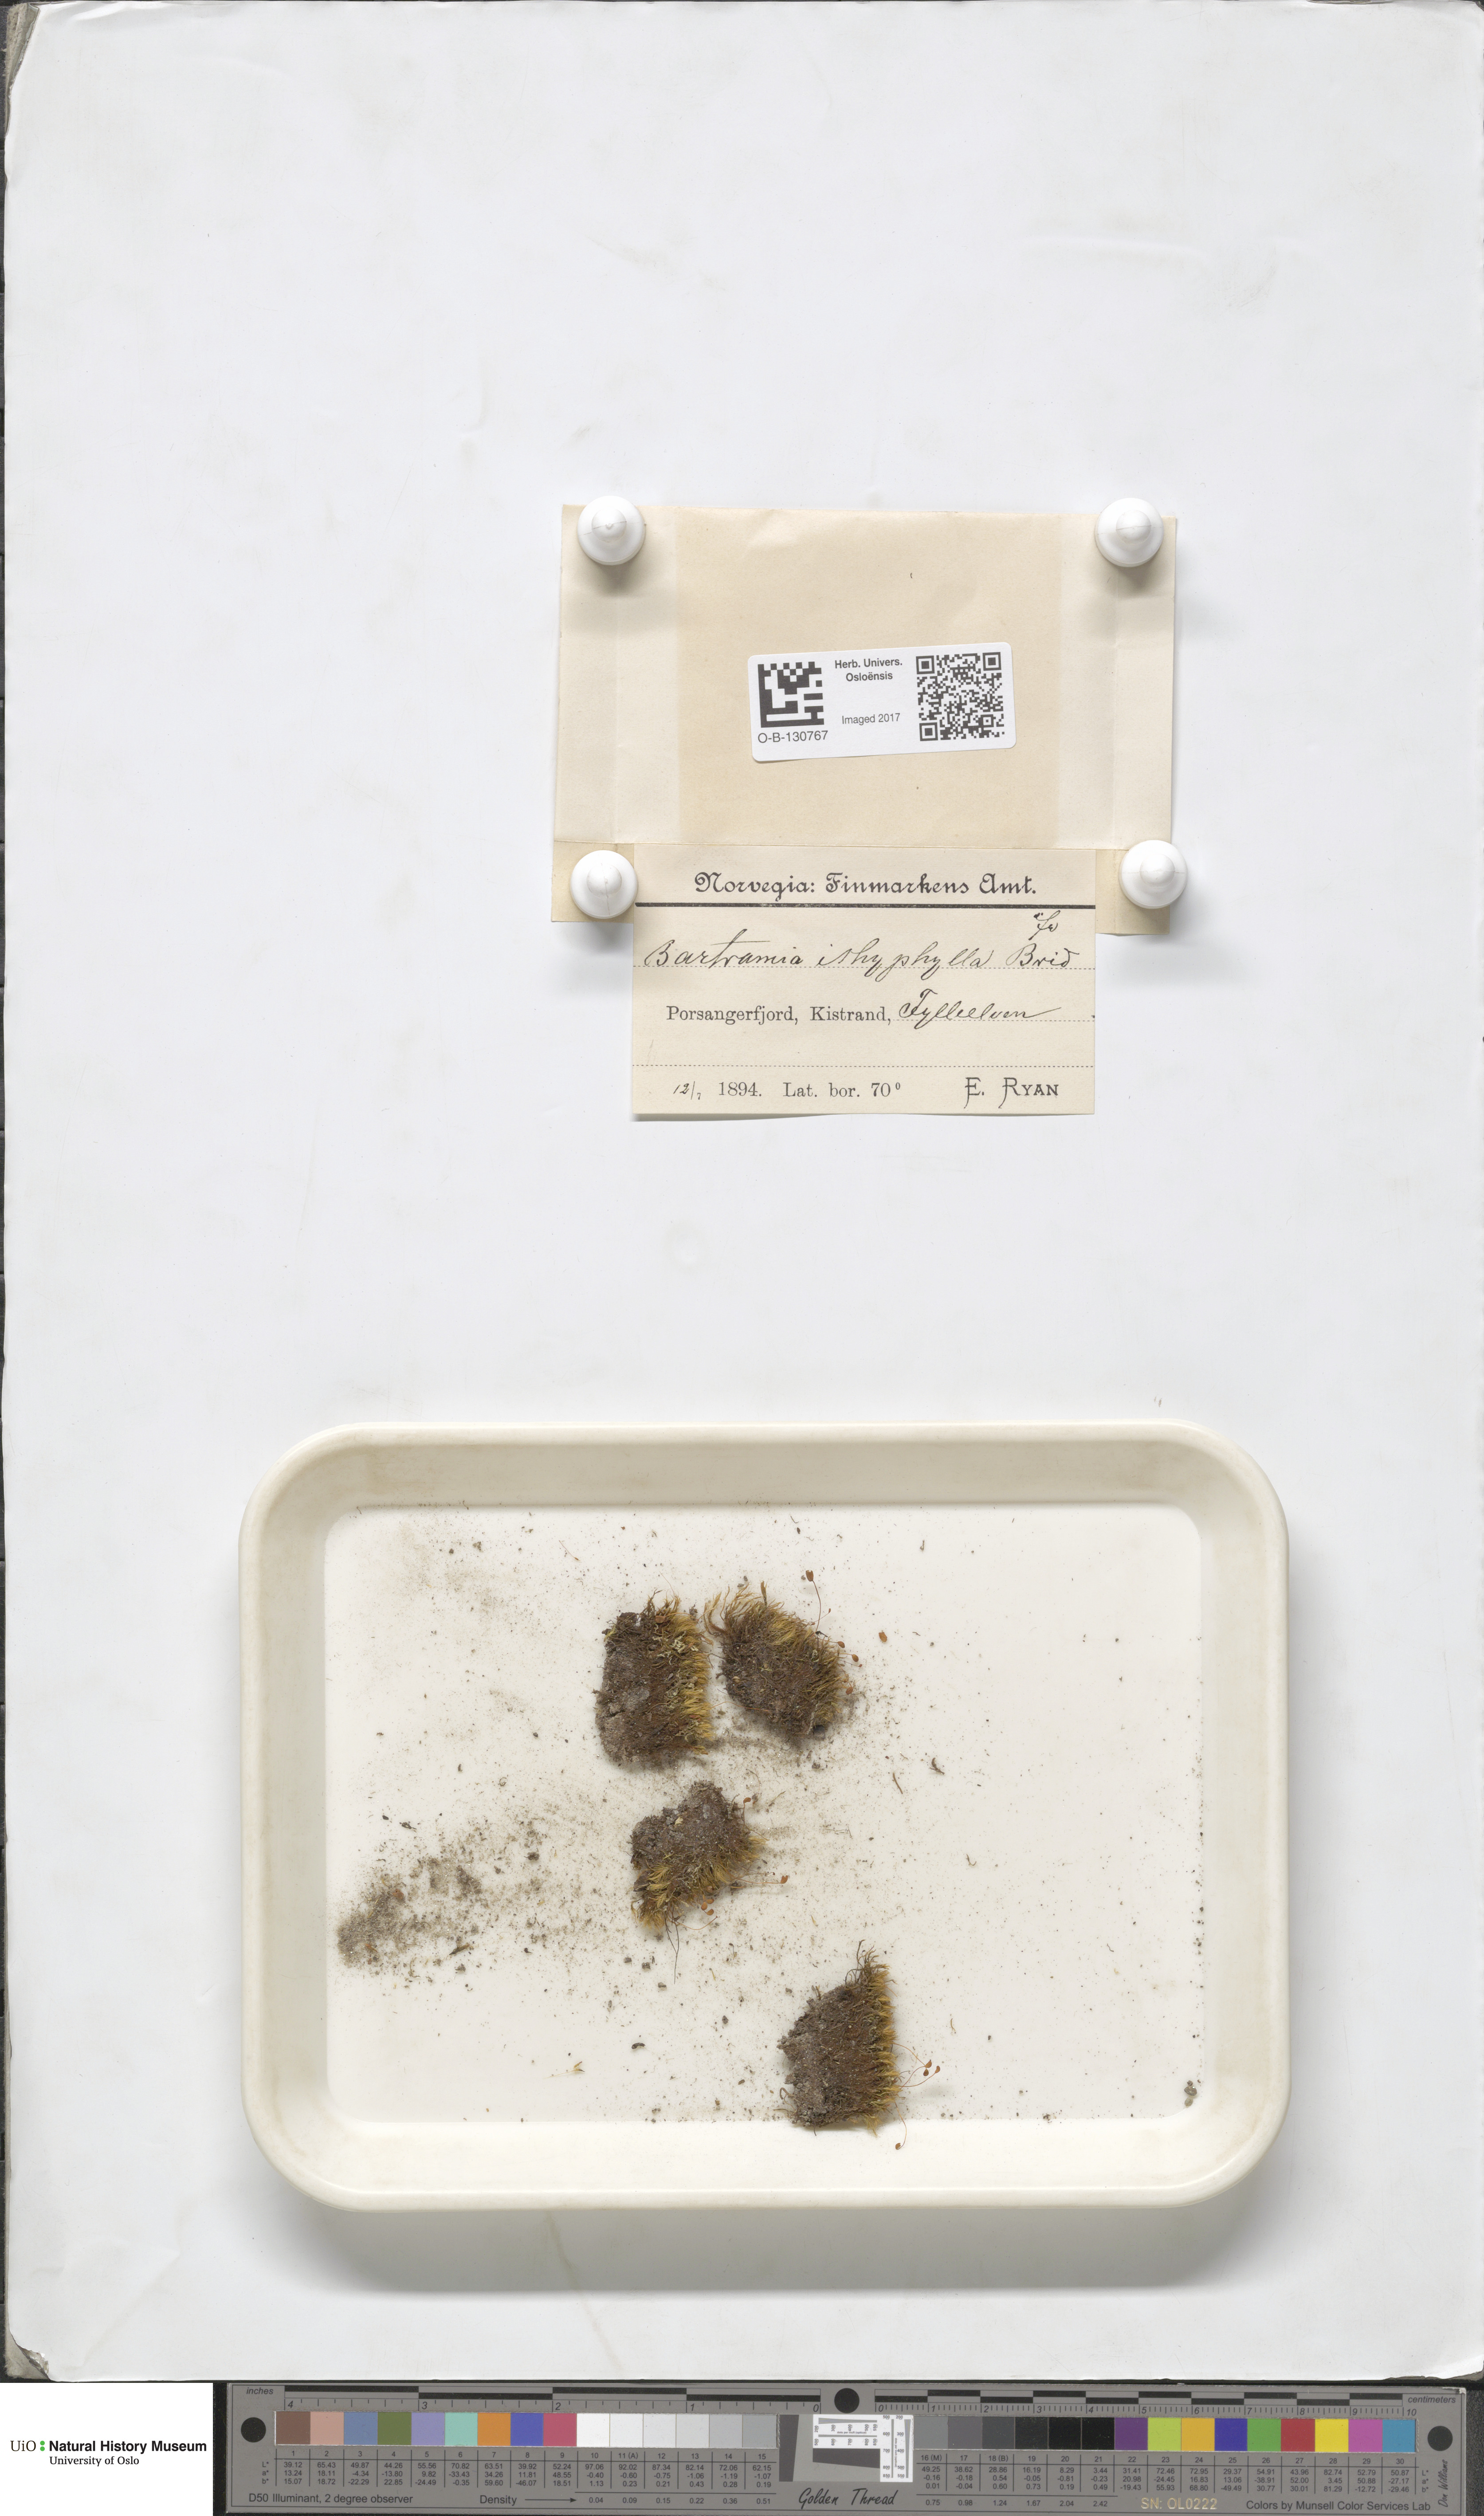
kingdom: Plantae
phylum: Bryophyta
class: Bryopsida
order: Bartramiales
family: Bartramiaceae
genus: Bartramia
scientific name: Bartramia ithyphylla
